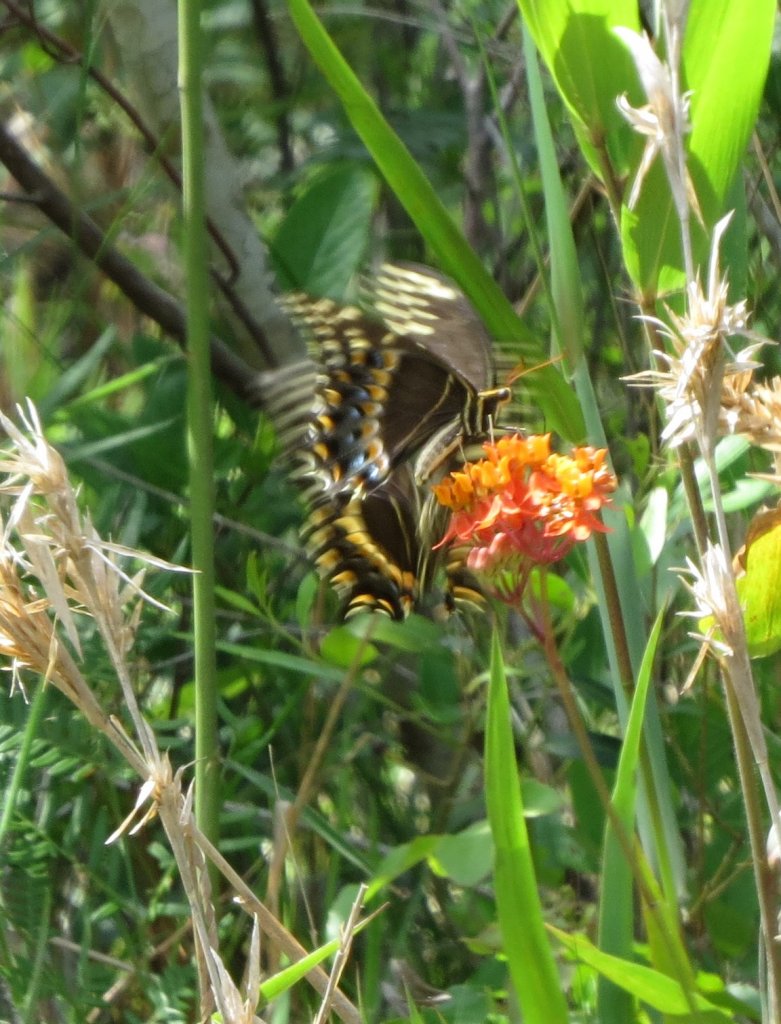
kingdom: Animalia
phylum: Arthropoda
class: Insecta
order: Lepidoptera
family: Papilionidae
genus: Pterourus
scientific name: Pterourus palamedes
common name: Palamedes Swallowtail
